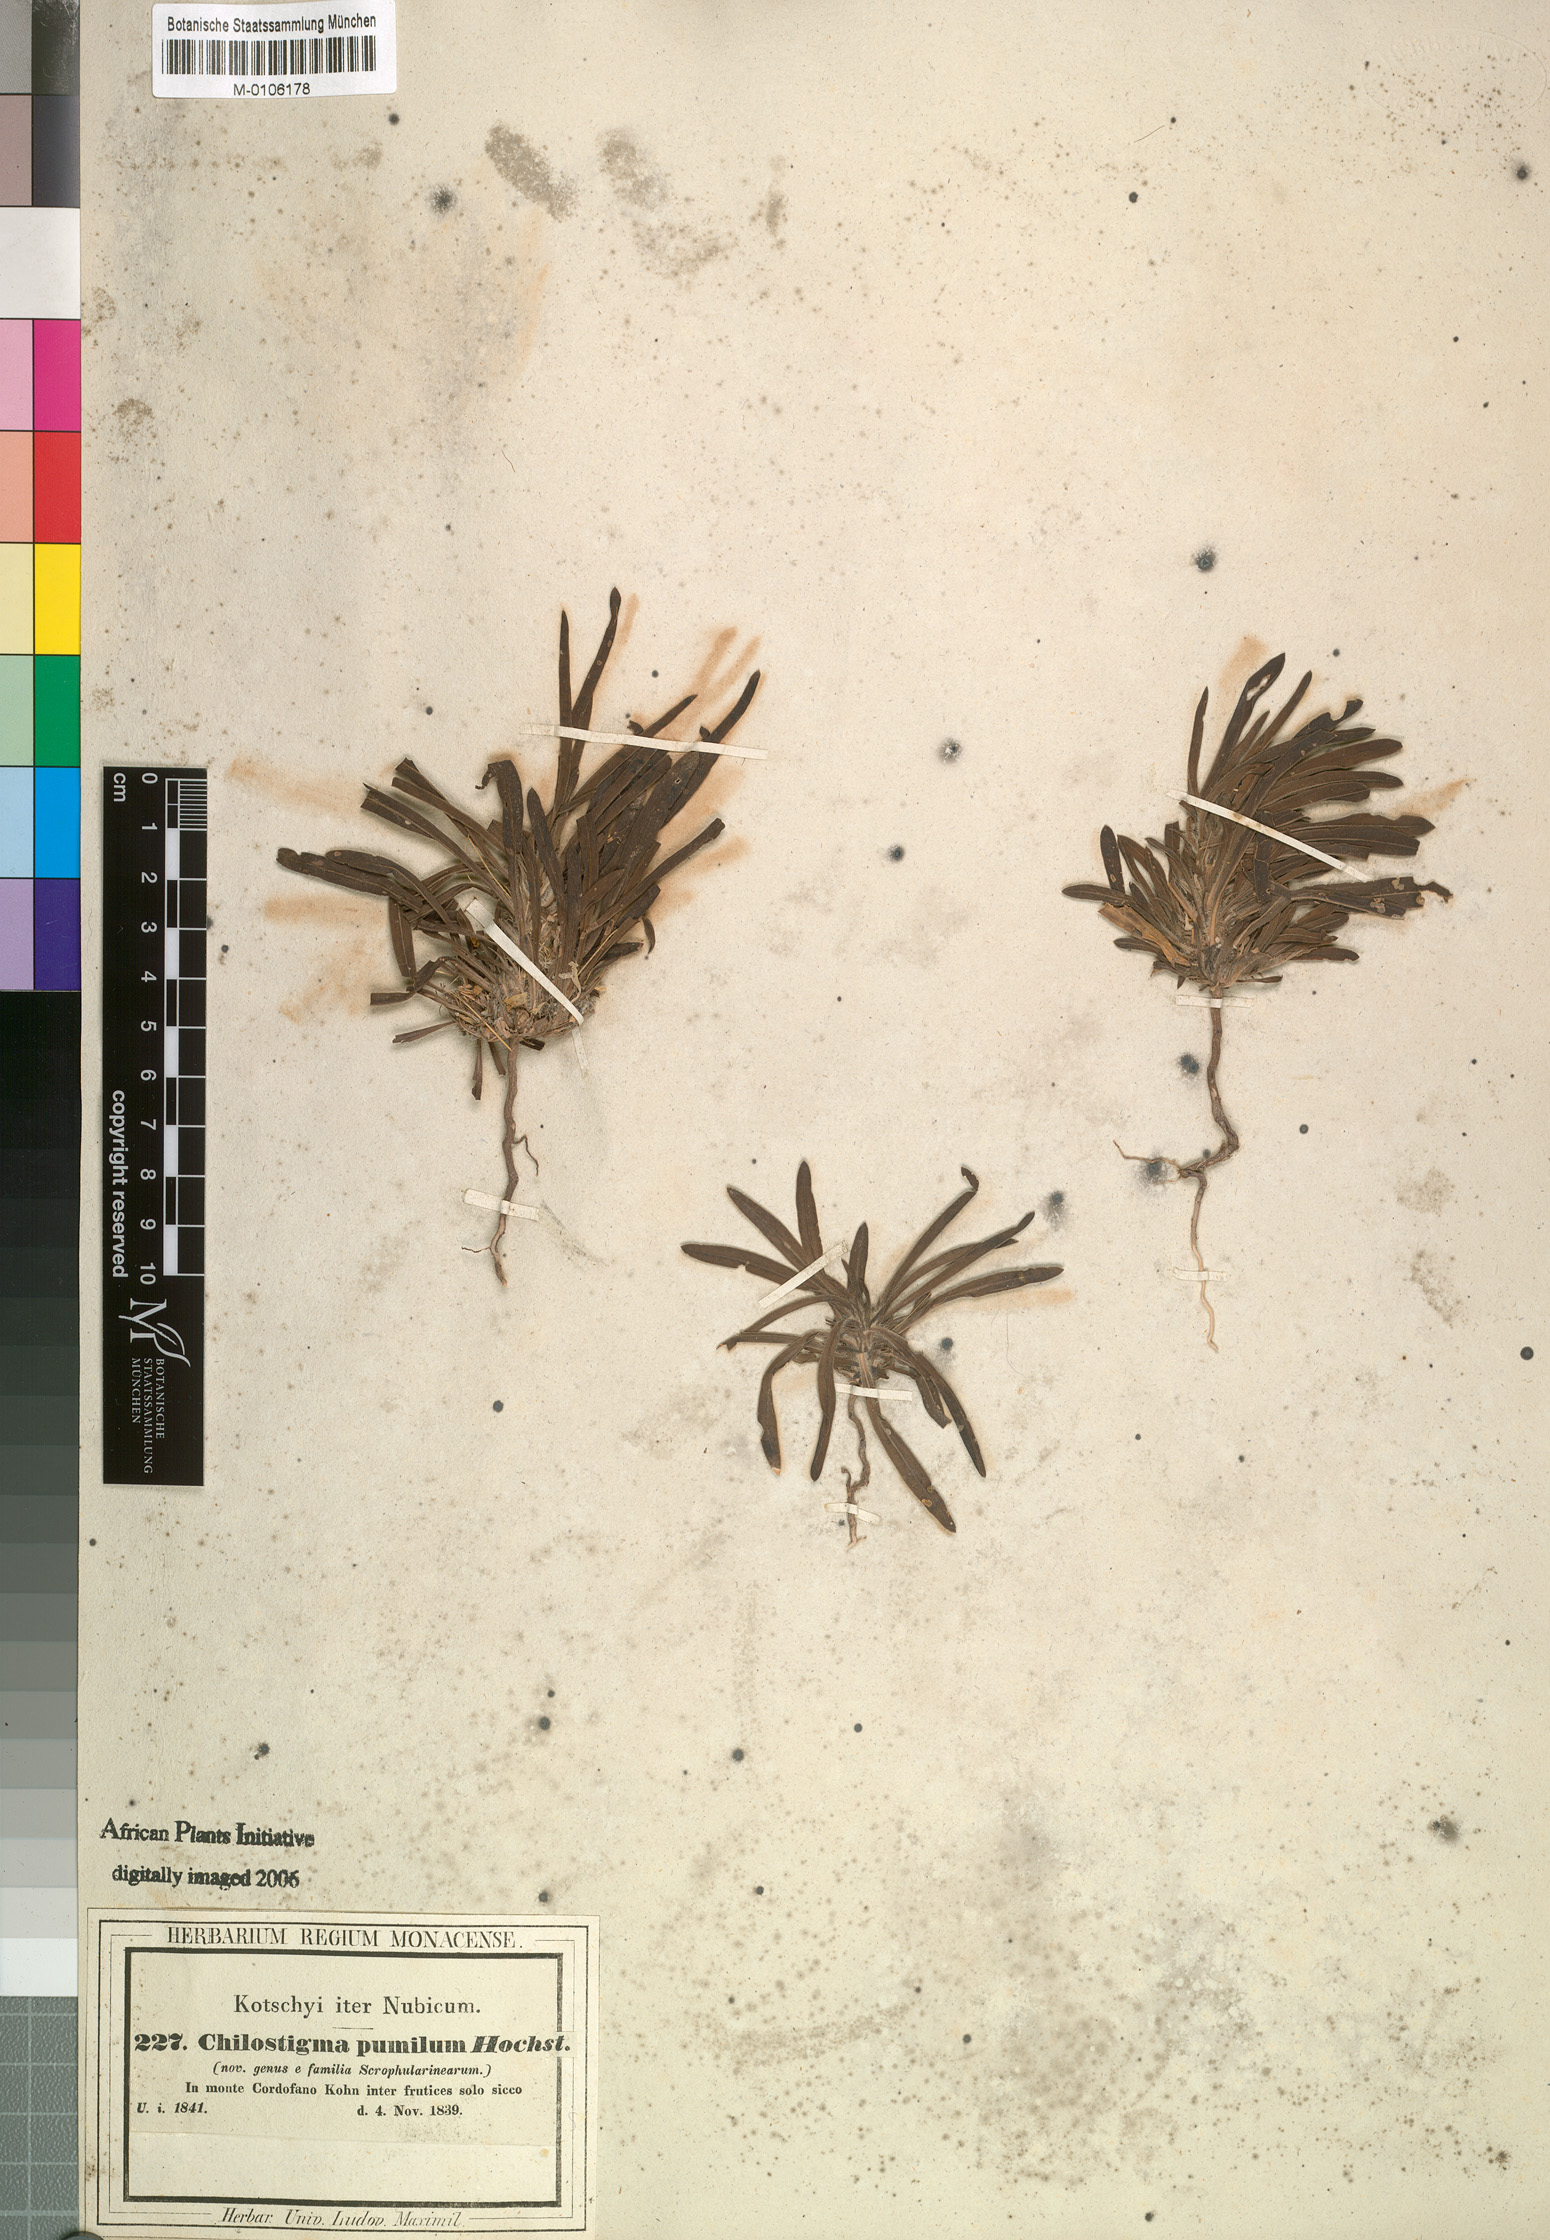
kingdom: Plantae
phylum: Tracheophyta
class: Magnoliopsida
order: Lamiales
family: Scrophulariaceae
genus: Aptosimum
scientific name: Aptosimum pumilum
